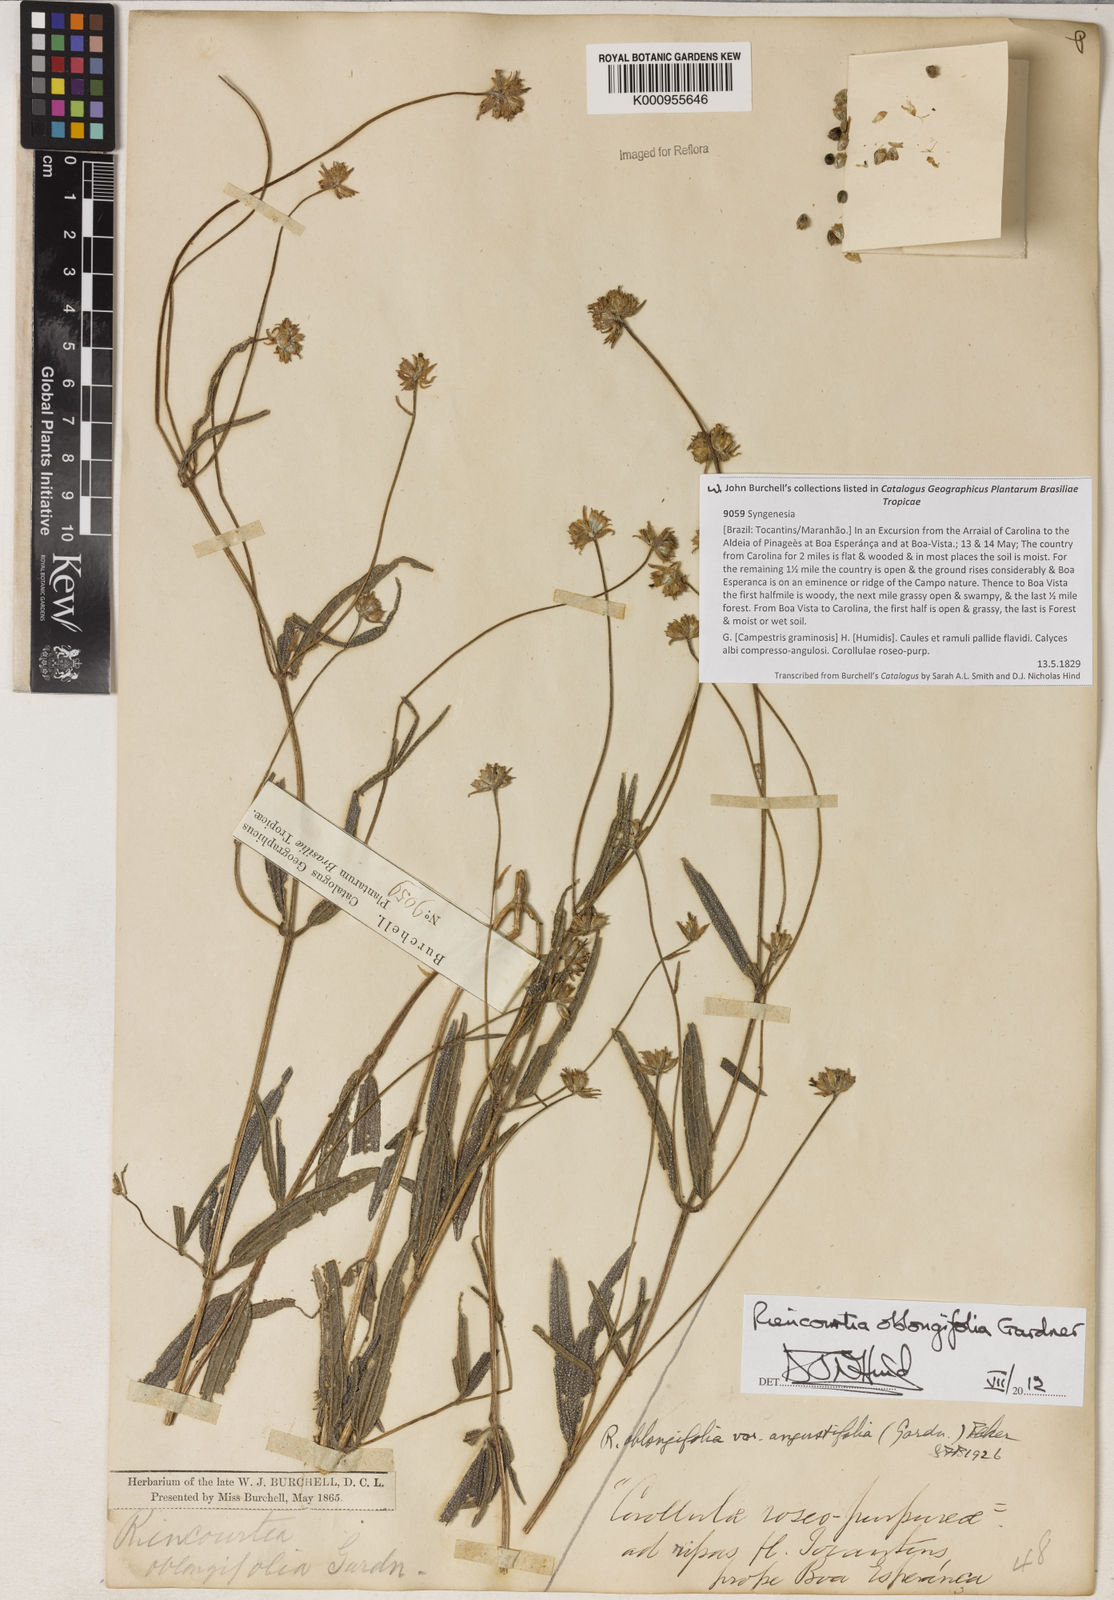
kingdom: Plantae
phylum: Tracheophyta
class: Magnoliopsida
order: Asterales
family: Asteraceae
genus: Riencourtia
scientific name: Riencourtia oblongifolia
